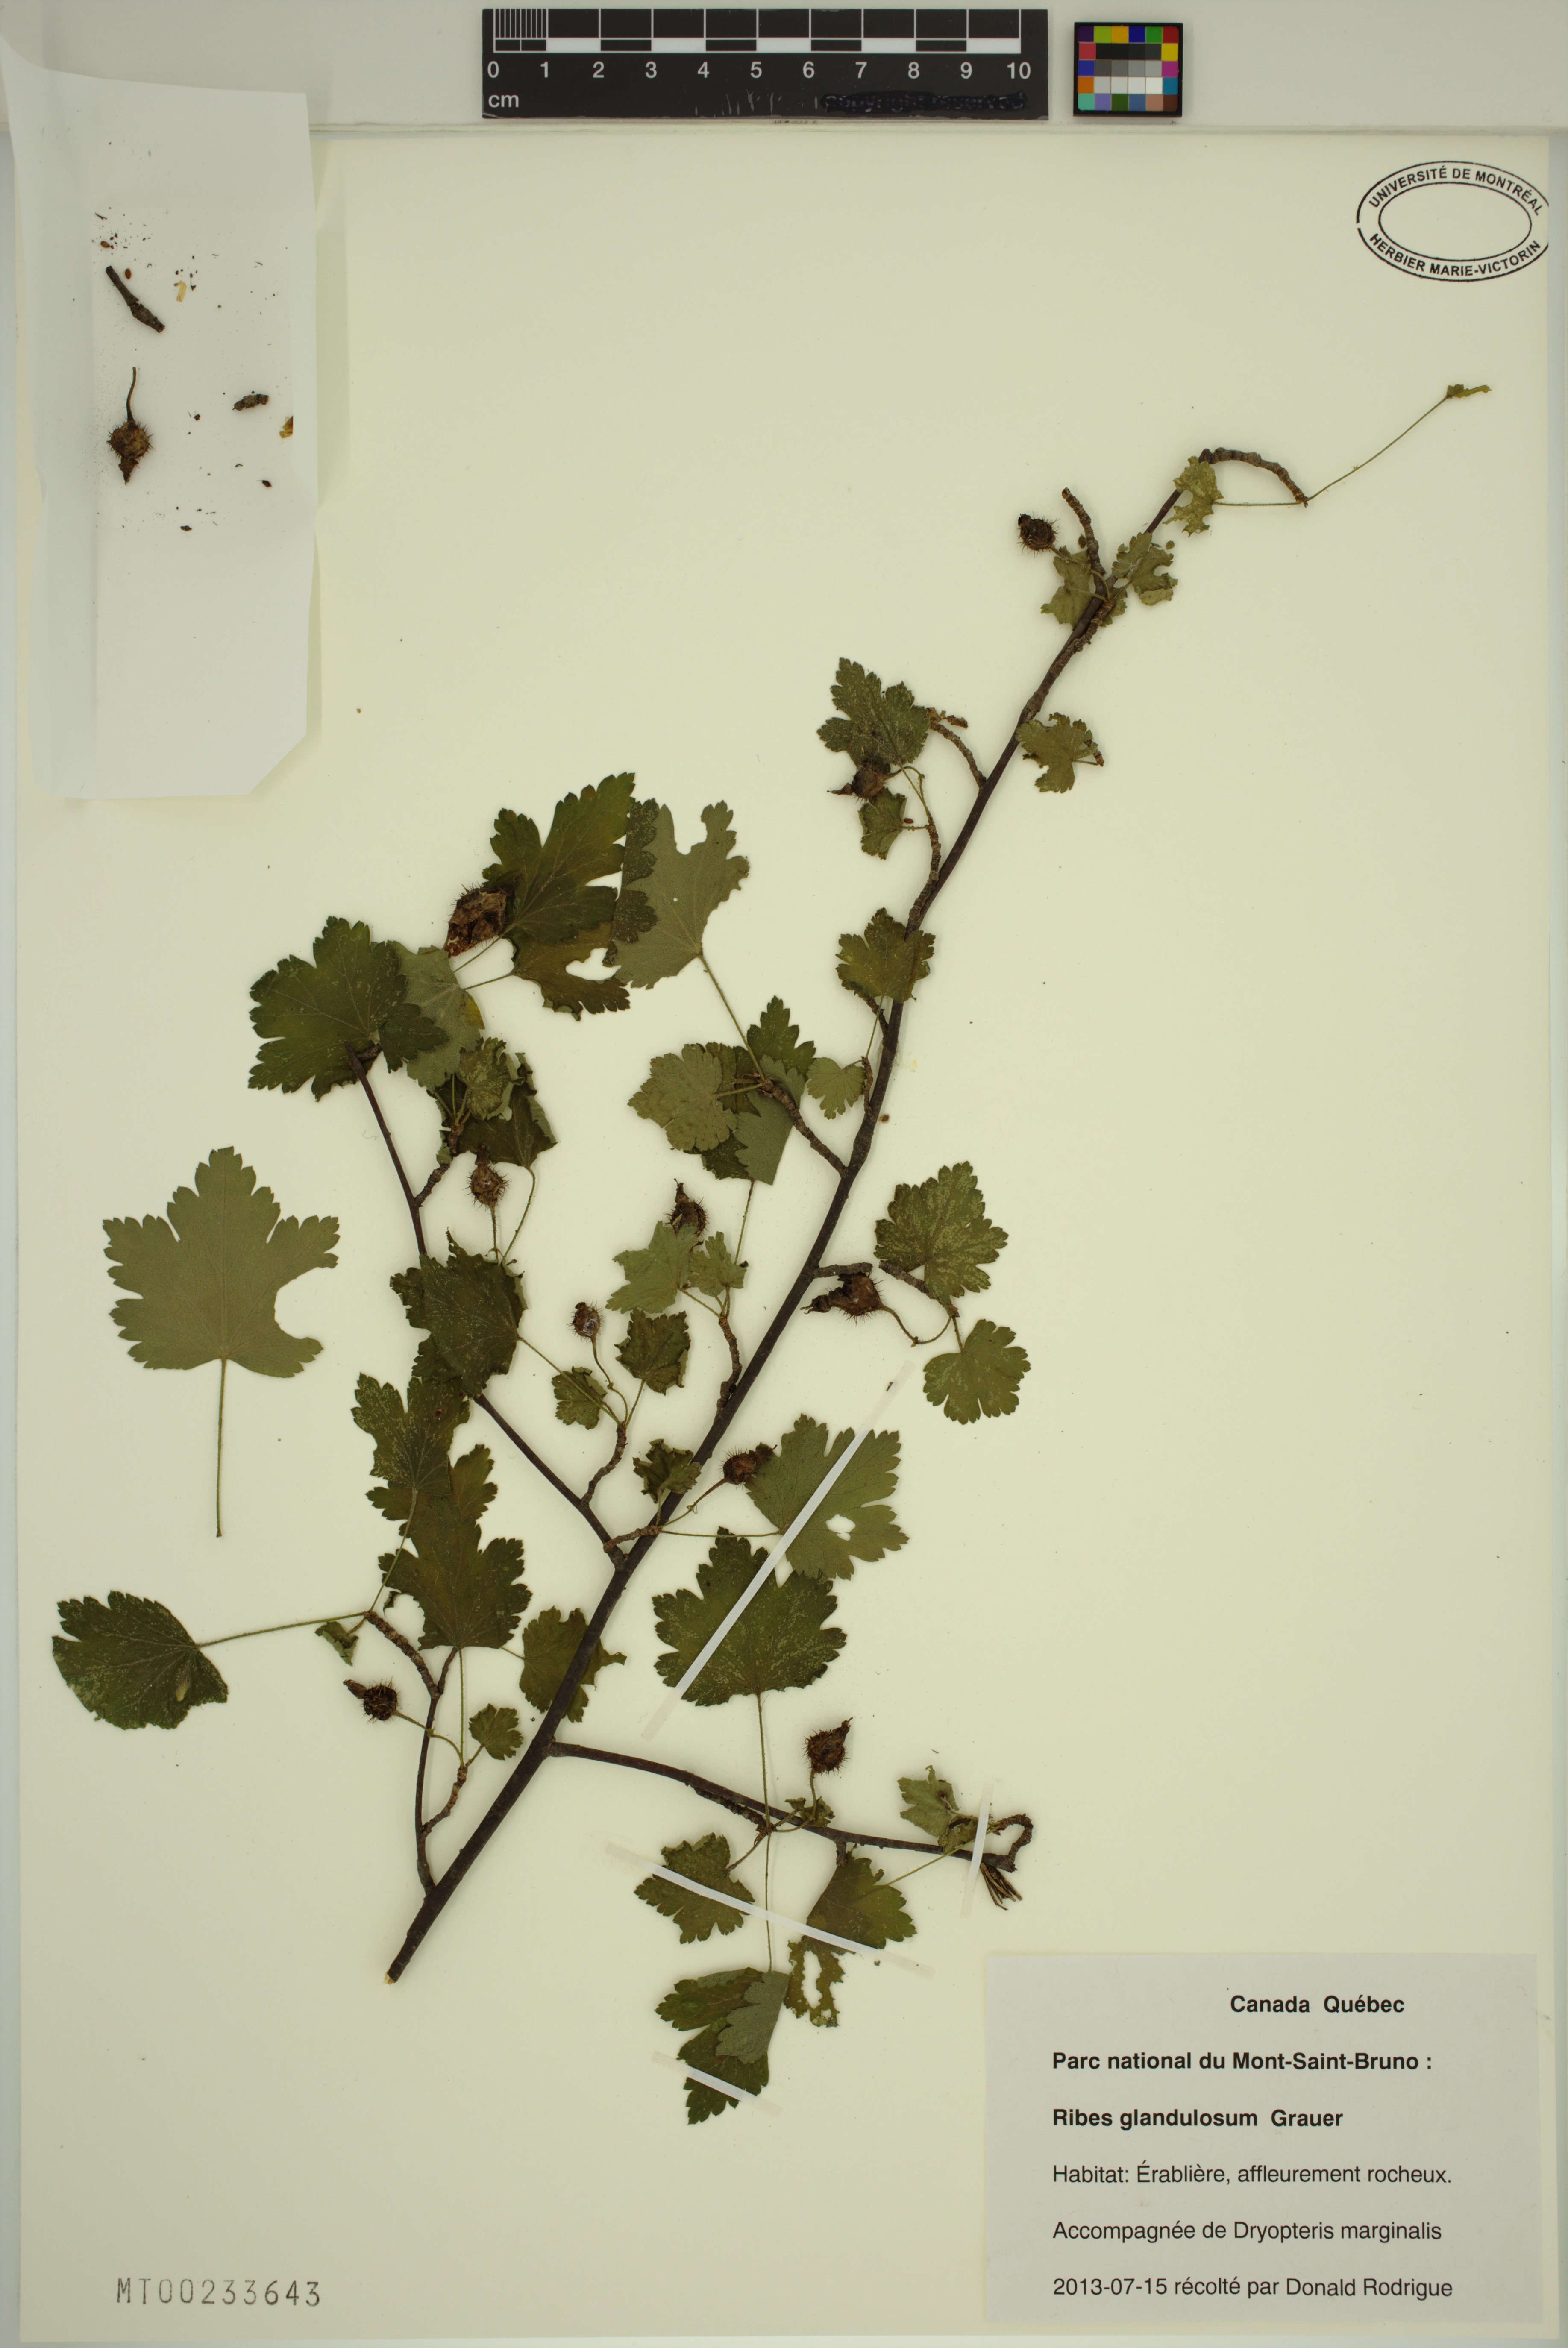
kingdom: Plantae
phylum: Tracheophyta
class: Magnoliopsida
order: Saxifragales
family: Grossulariaceae
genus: Ribes
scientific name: Ribes cynosbati
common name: American gooseberry
